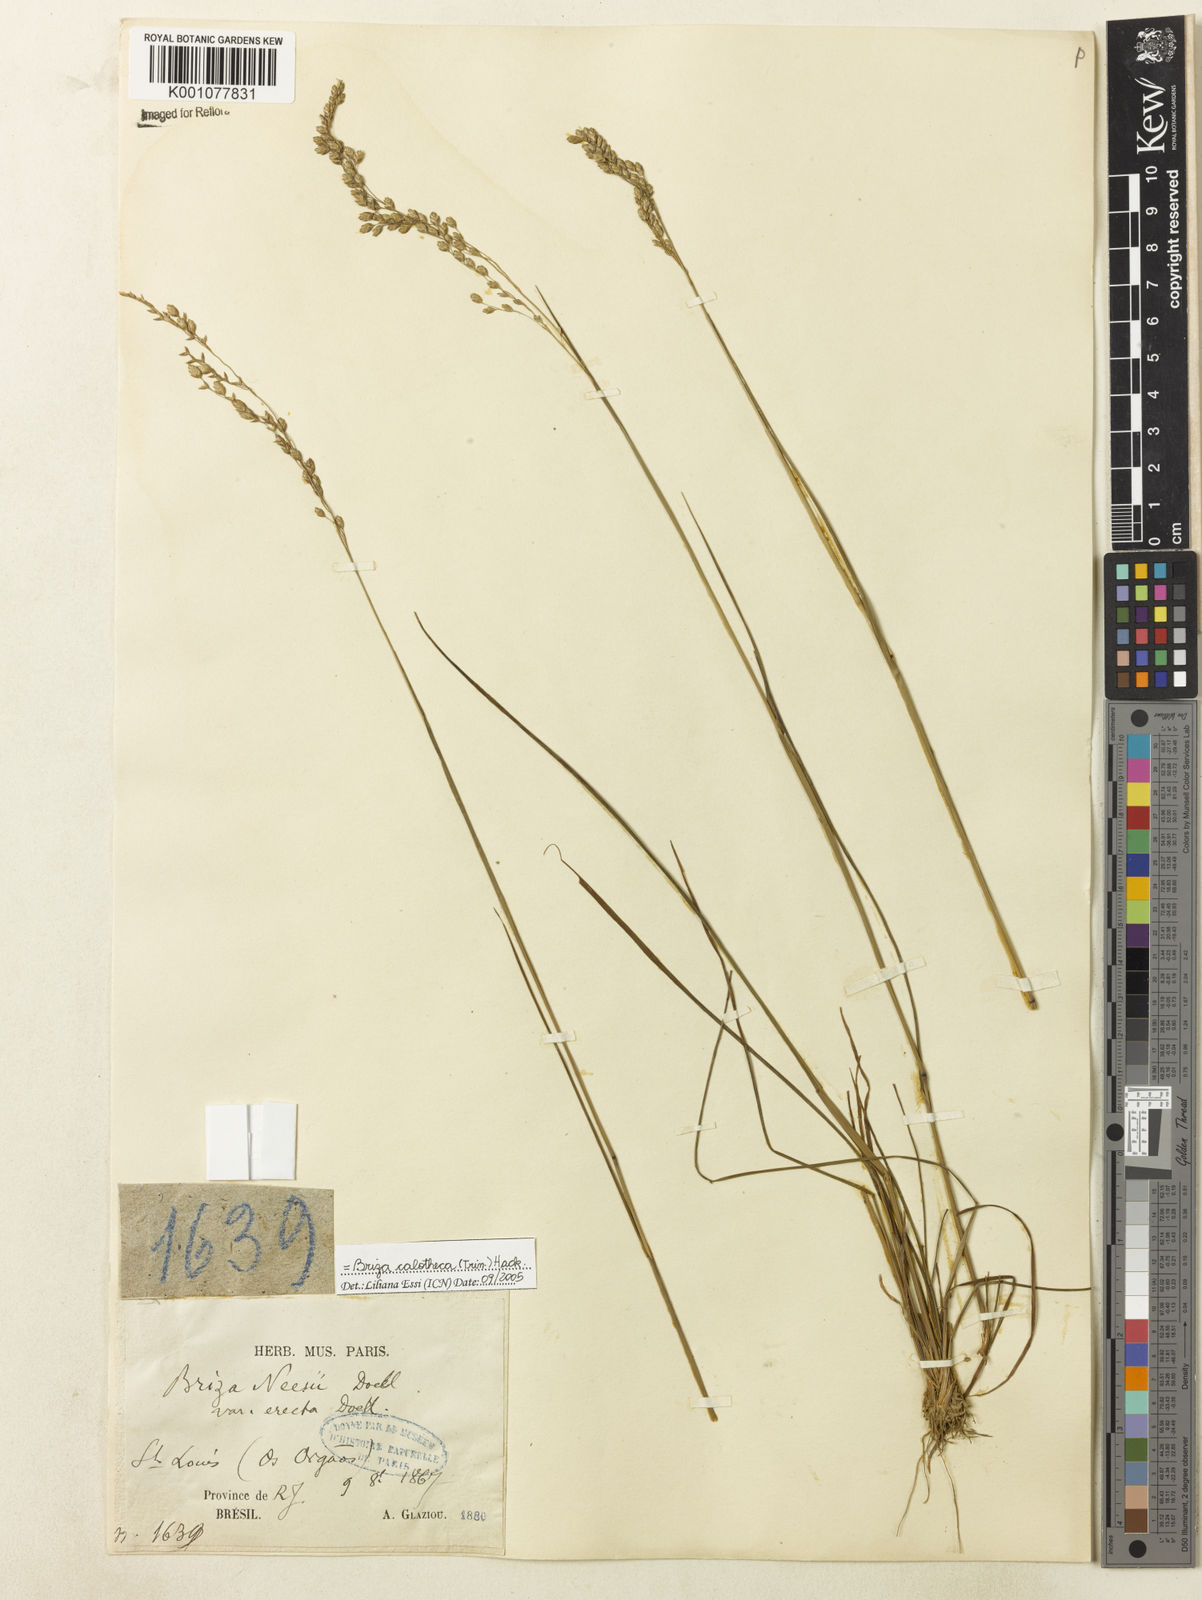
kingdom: Plantae
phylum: Tracheophyta
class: Liliopsida
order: Poales
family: Poaceae
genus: Poidium
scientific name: Poidium calotheca
